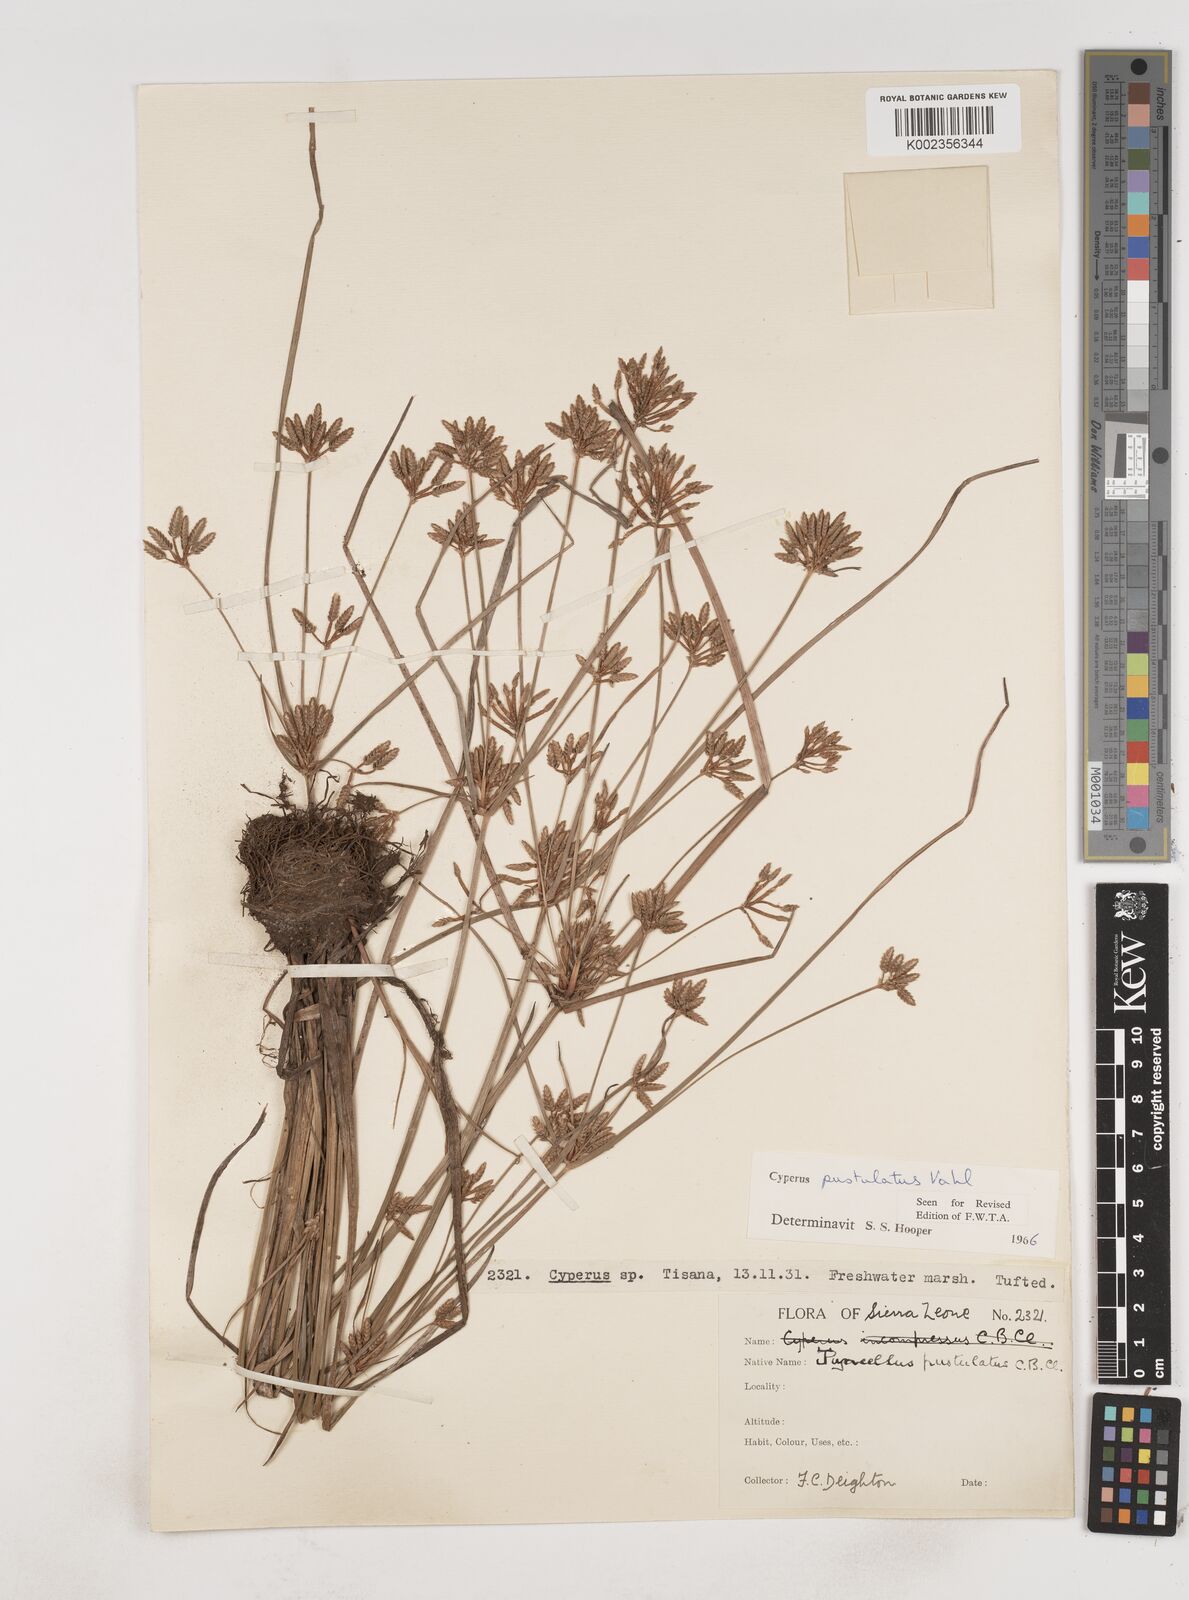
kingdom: Plantae
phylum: Tracheophyta
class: Liliopsida
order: Poales
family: Cyperaceae
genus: Cyperus
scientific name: Cyperus pustulatus
